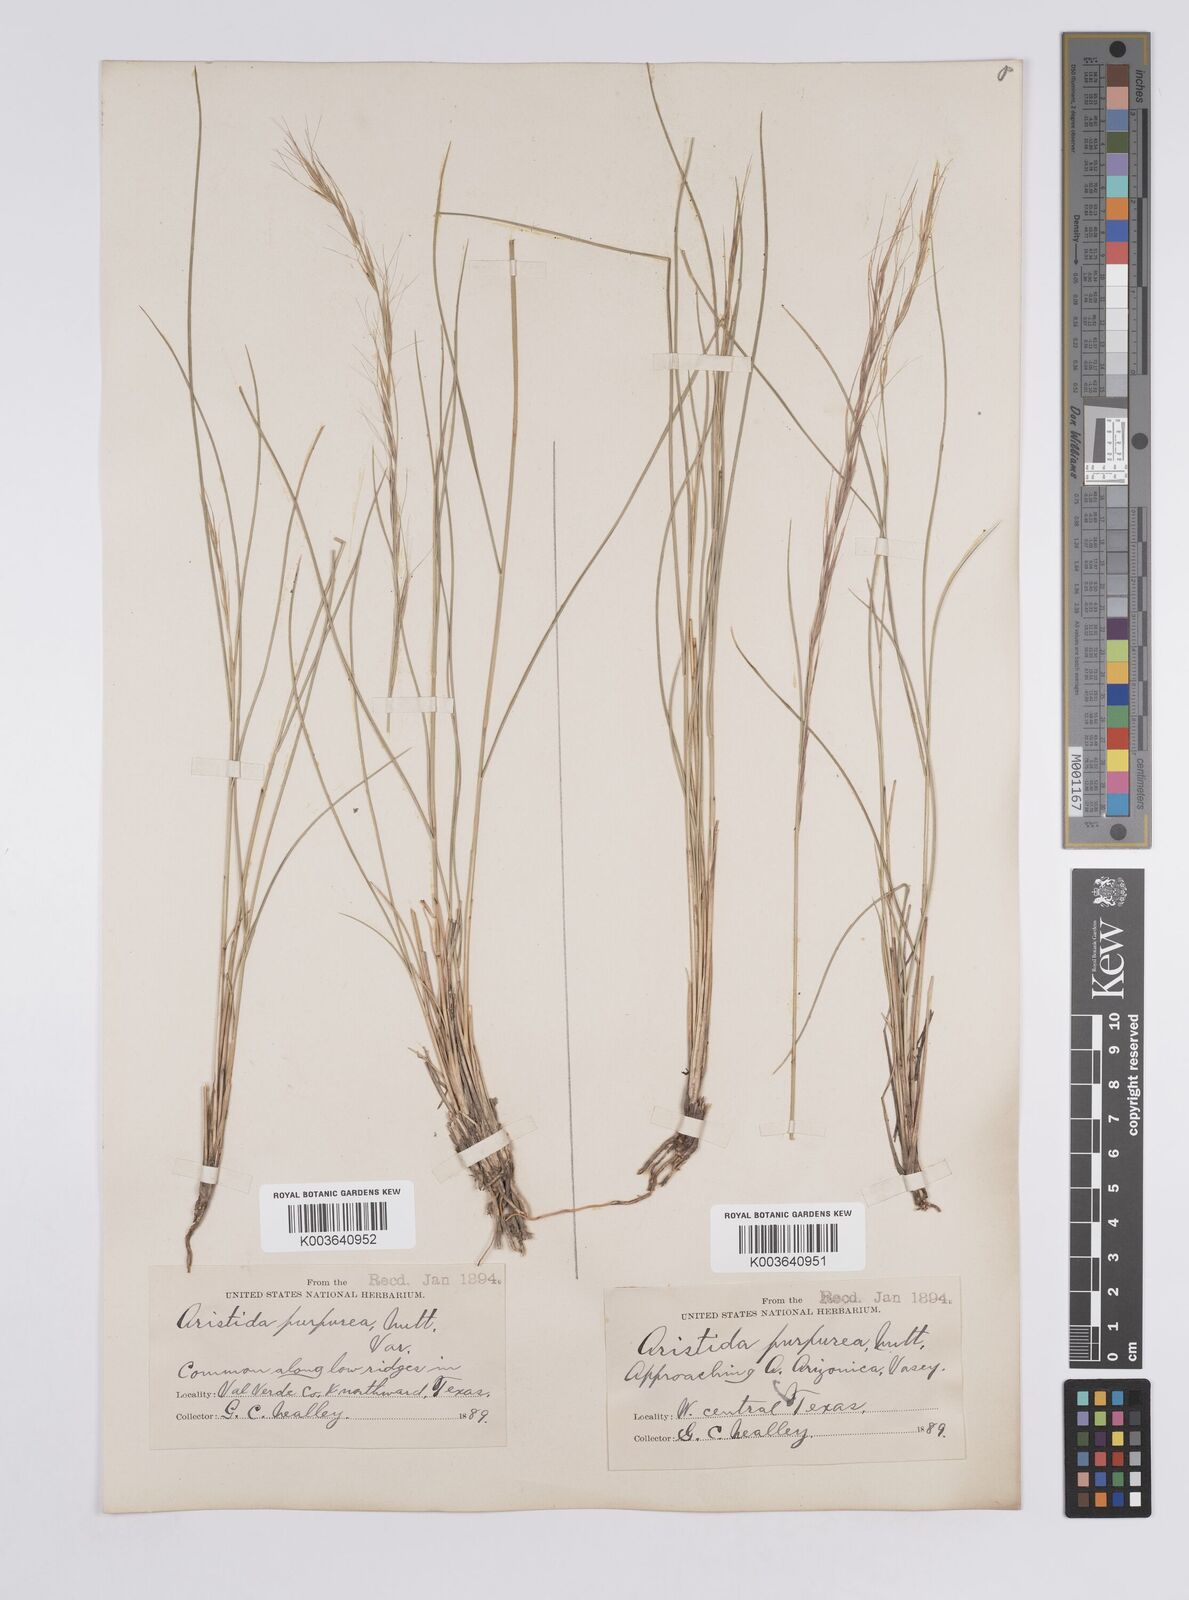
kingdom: Plantae
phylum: Tracheophyta
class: Liliopsida
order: Poales
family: Poaceae
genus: Aristida
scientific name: Aristida purpurea
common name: Purple threeawn
